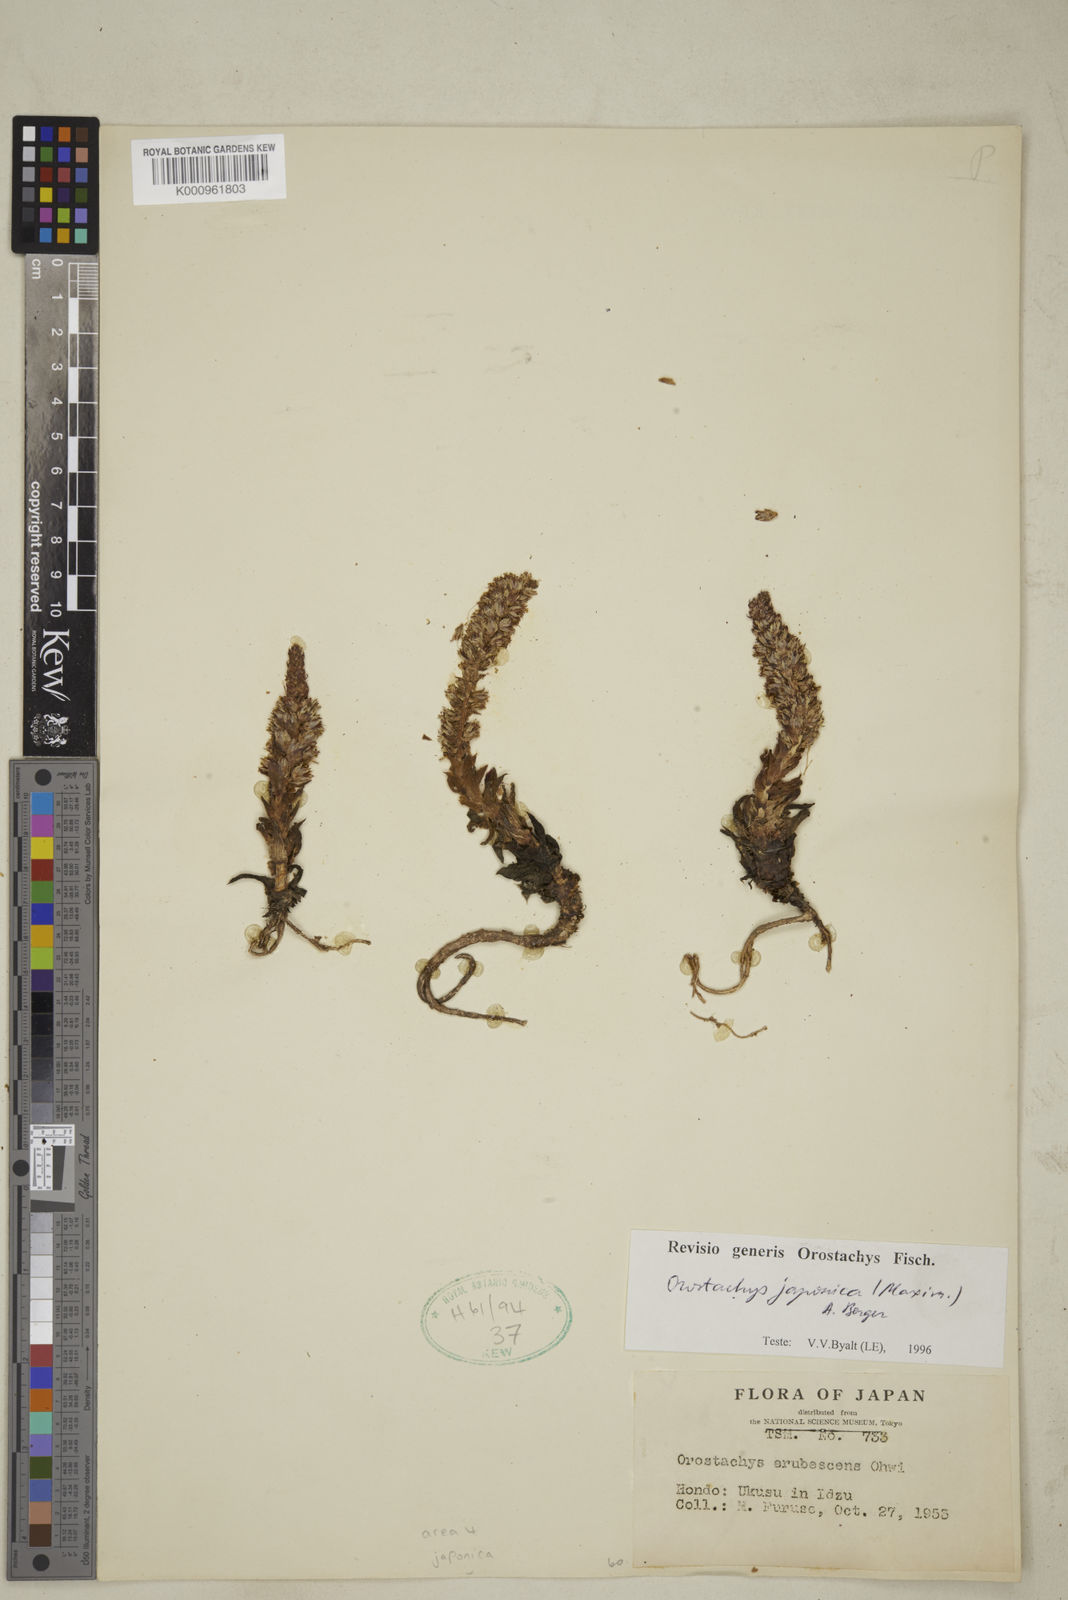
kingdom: Plantae
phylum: Tracheophyta
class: Magnoliopsida
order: Saxifragales
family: Crassulaceae
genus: Orostachys
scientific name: Orostachys japonica
